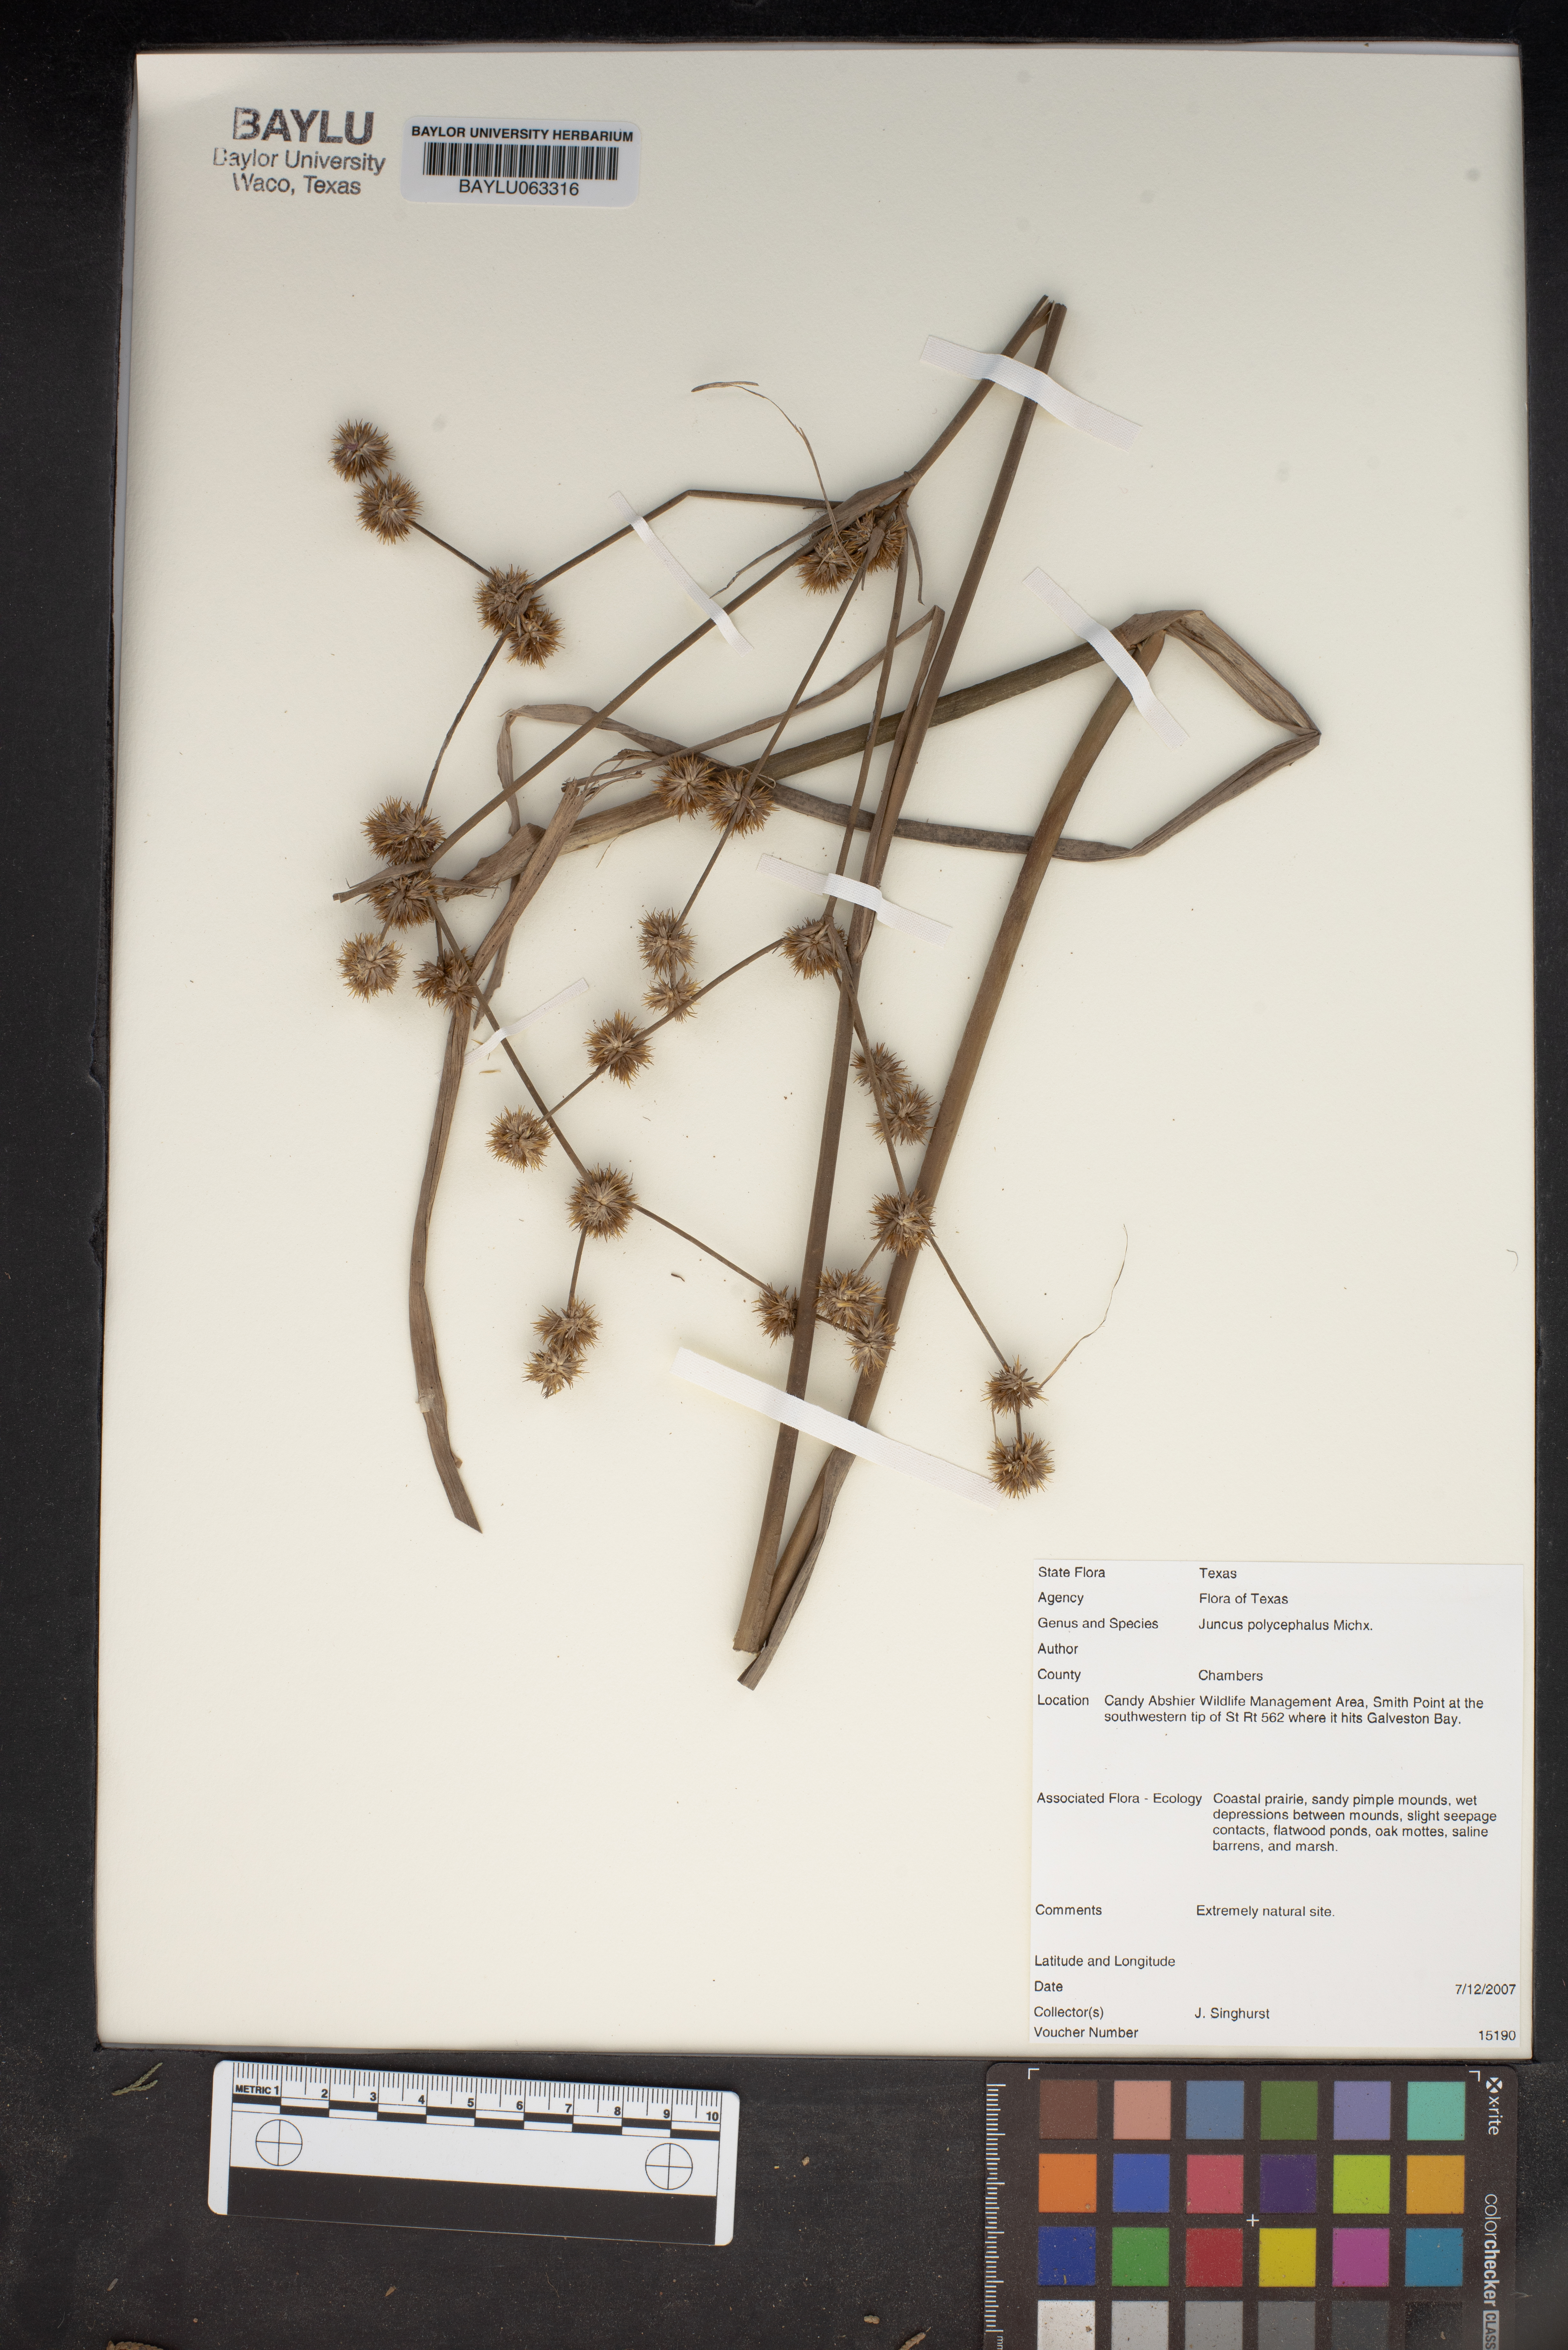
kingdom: Plantae
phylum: Tracheophyta
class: Liliopsida
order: Poales
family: Juncaceae
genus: Juncus
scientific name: Juncus polycephalus
